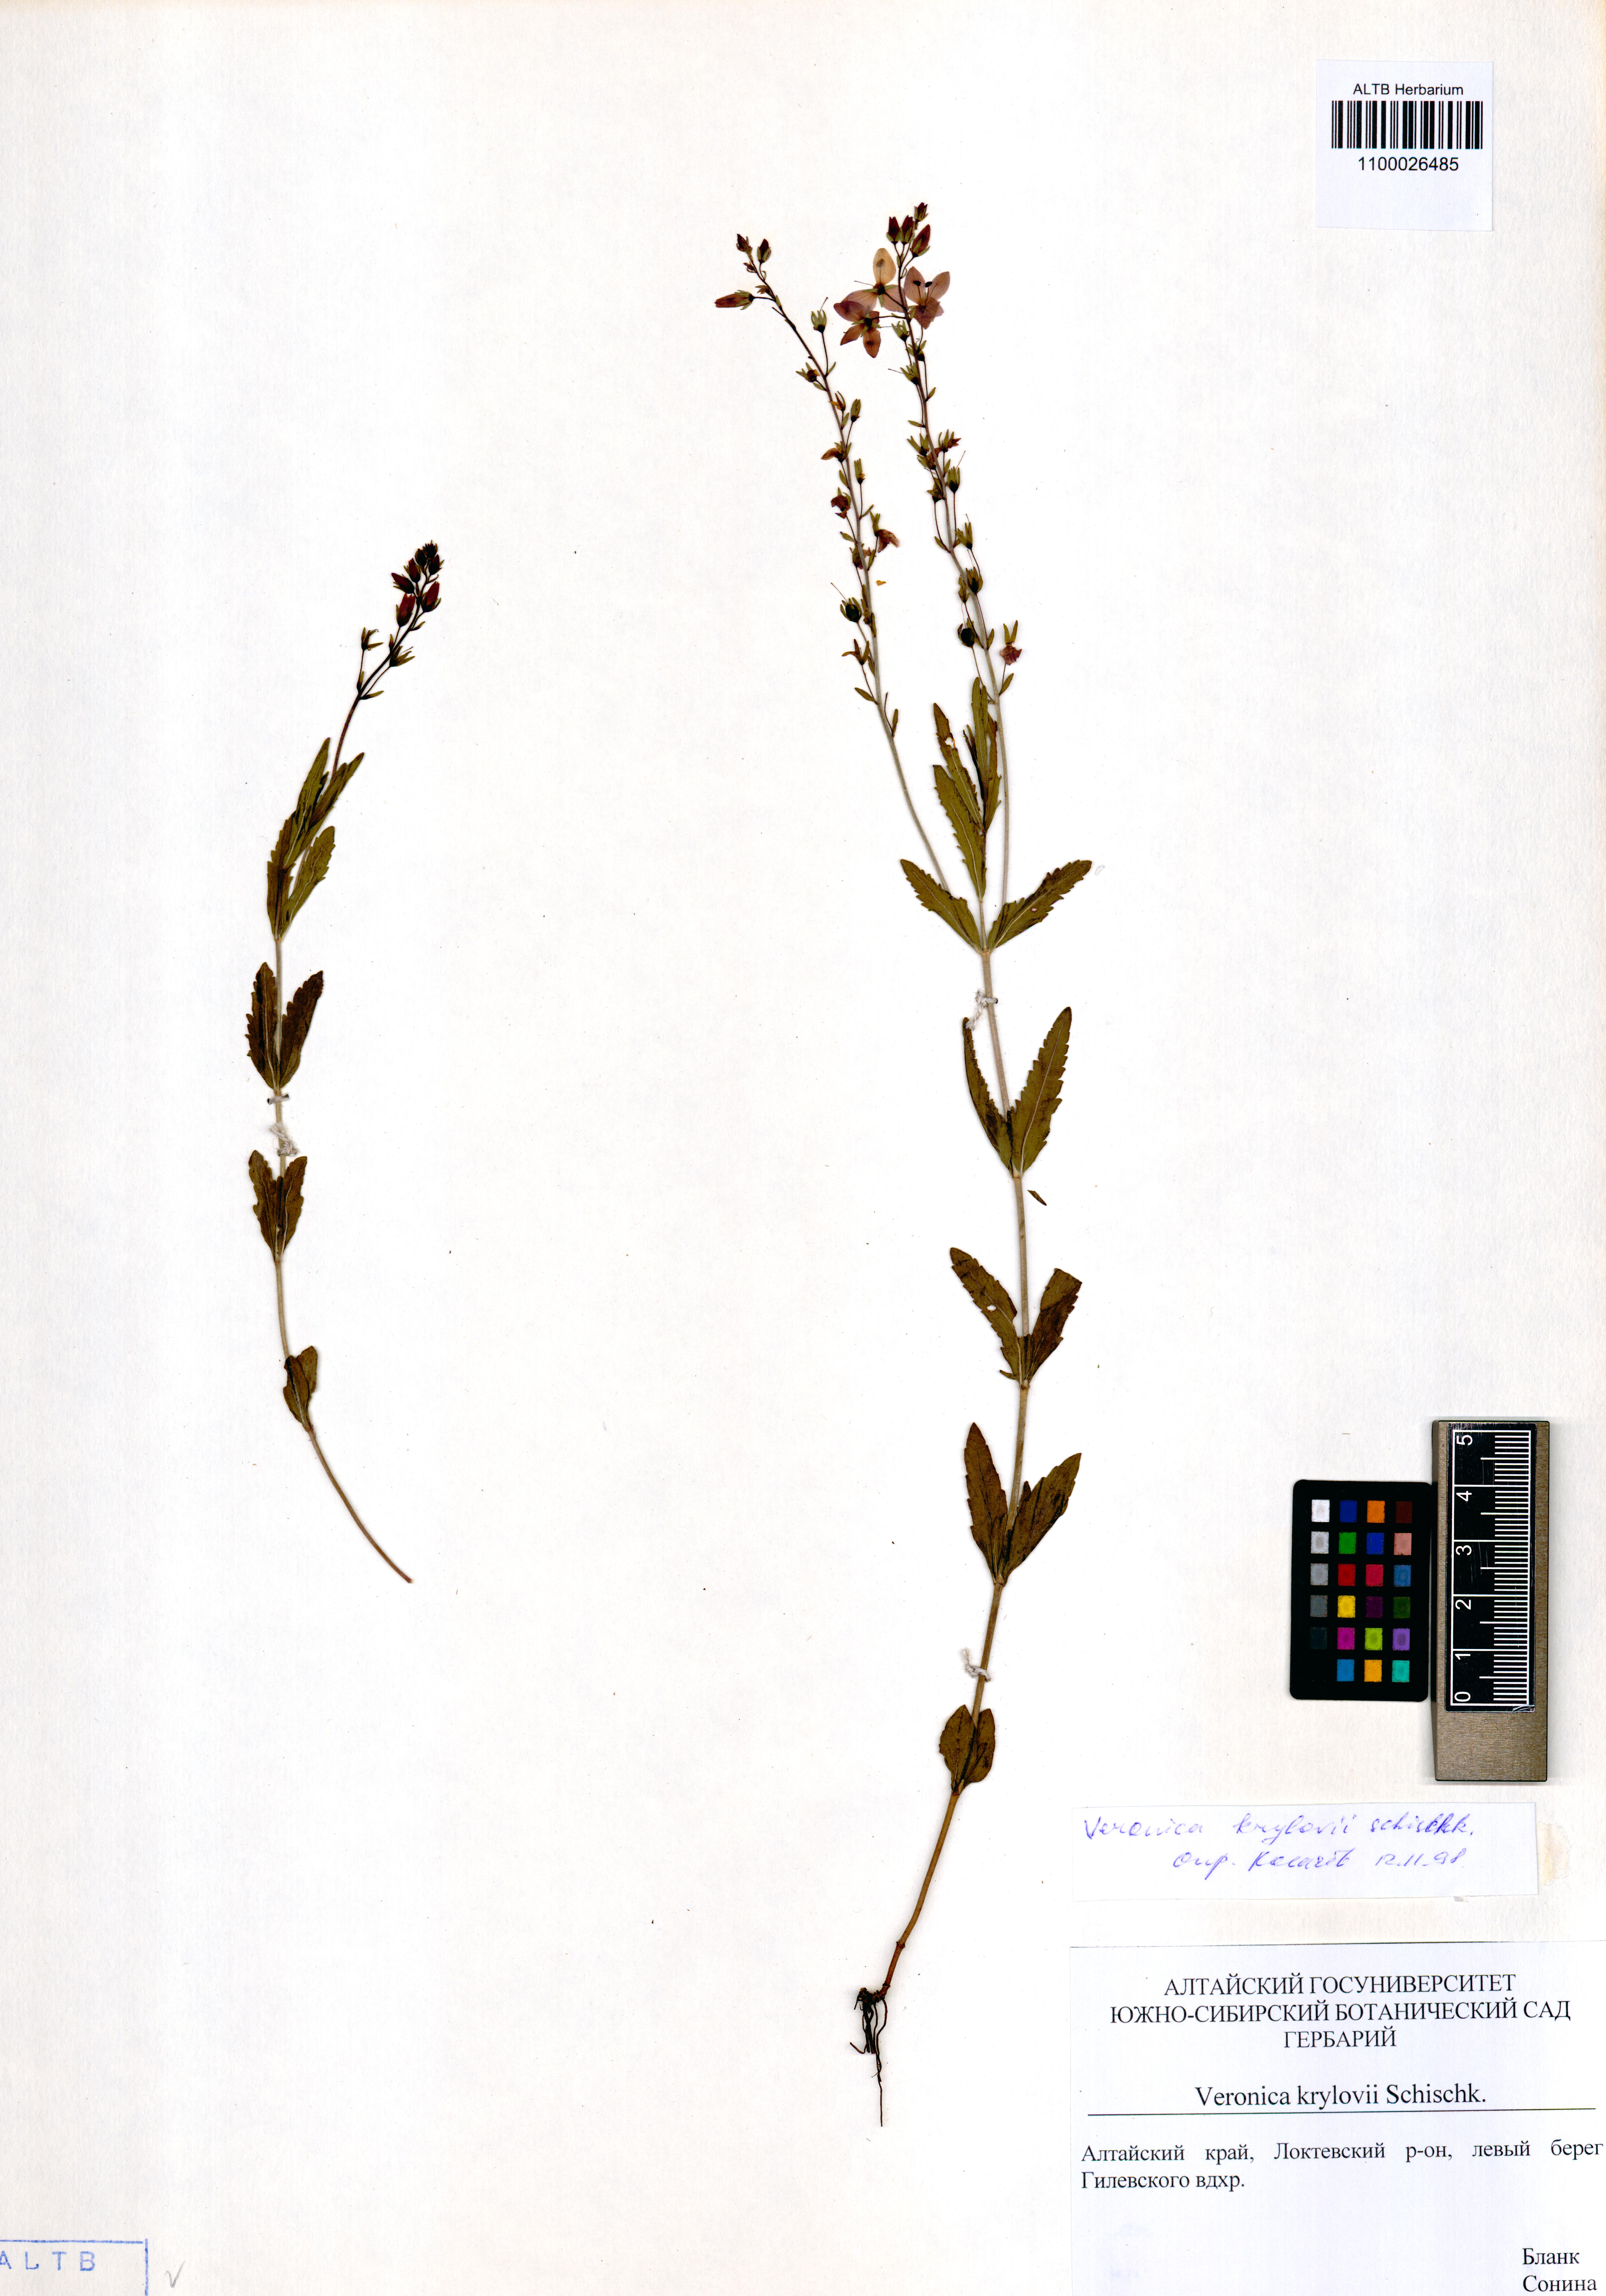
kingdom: Plantae
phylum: Tracheophyta
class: Magnoliopsida
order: Lamiales
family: Plantaginaceae
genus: Veronica
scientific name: Veronica krylovii
